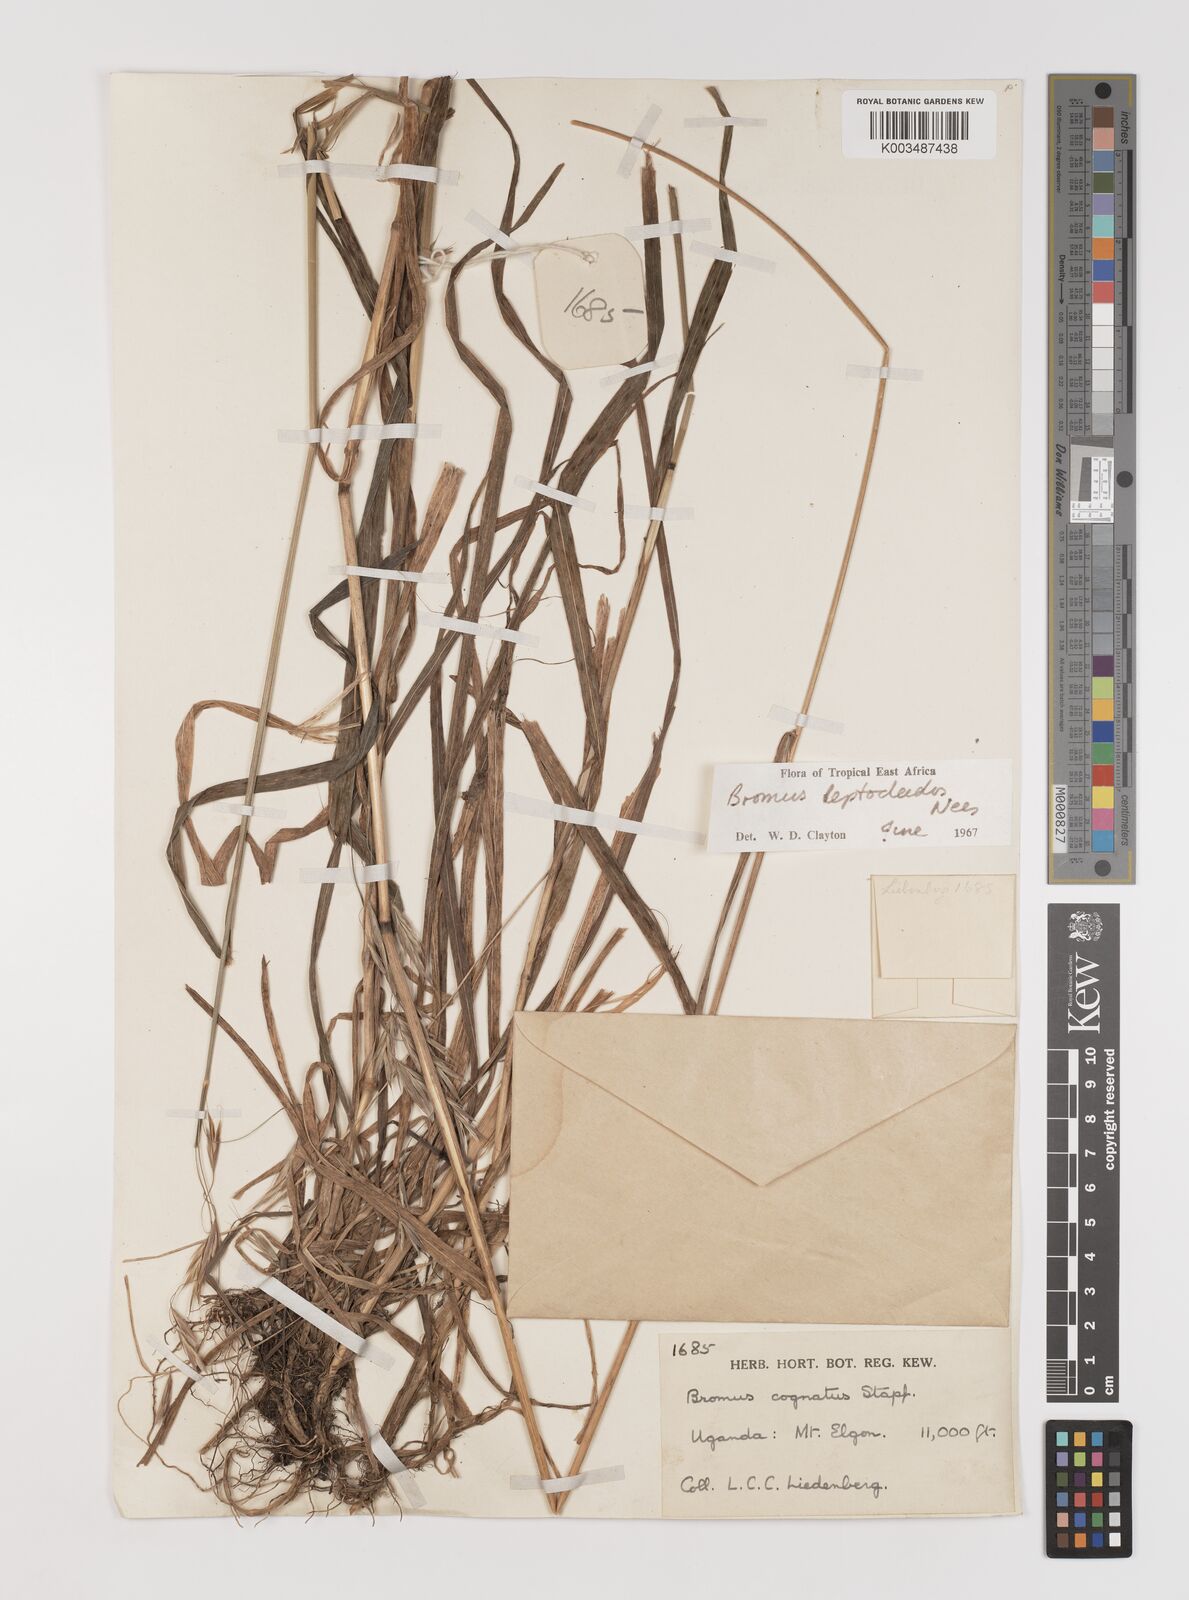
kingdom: Plantae
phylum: Tracheophyta
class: Liliopsida
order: Poales
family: Poaceae
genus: Bromus
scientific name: Bromus leptoclados
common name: Mountain bromegrass
